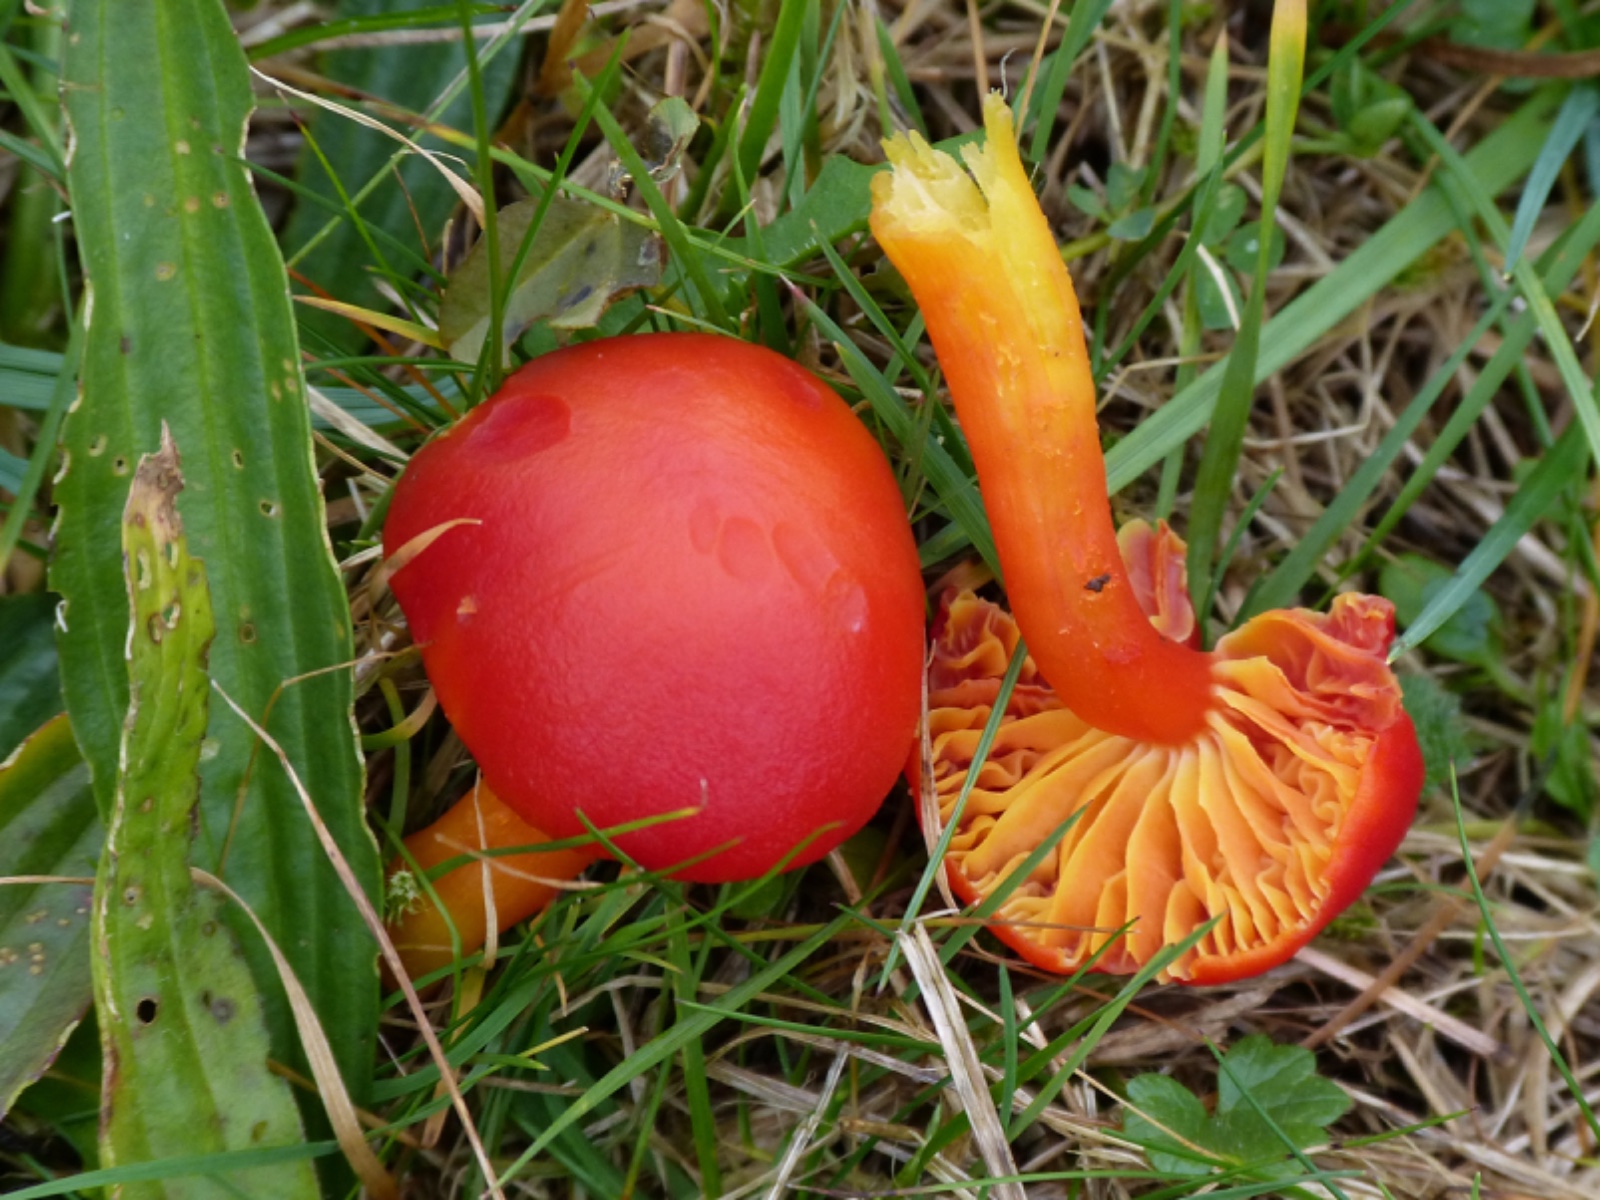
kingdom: Fungi
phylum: Basidiomycota
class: Agaricomycetes
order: Agaricales
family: Hygrophoraceae
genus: Hygrocybe
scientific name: Hygrocybe coccinea
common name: cinnober-vokshat
